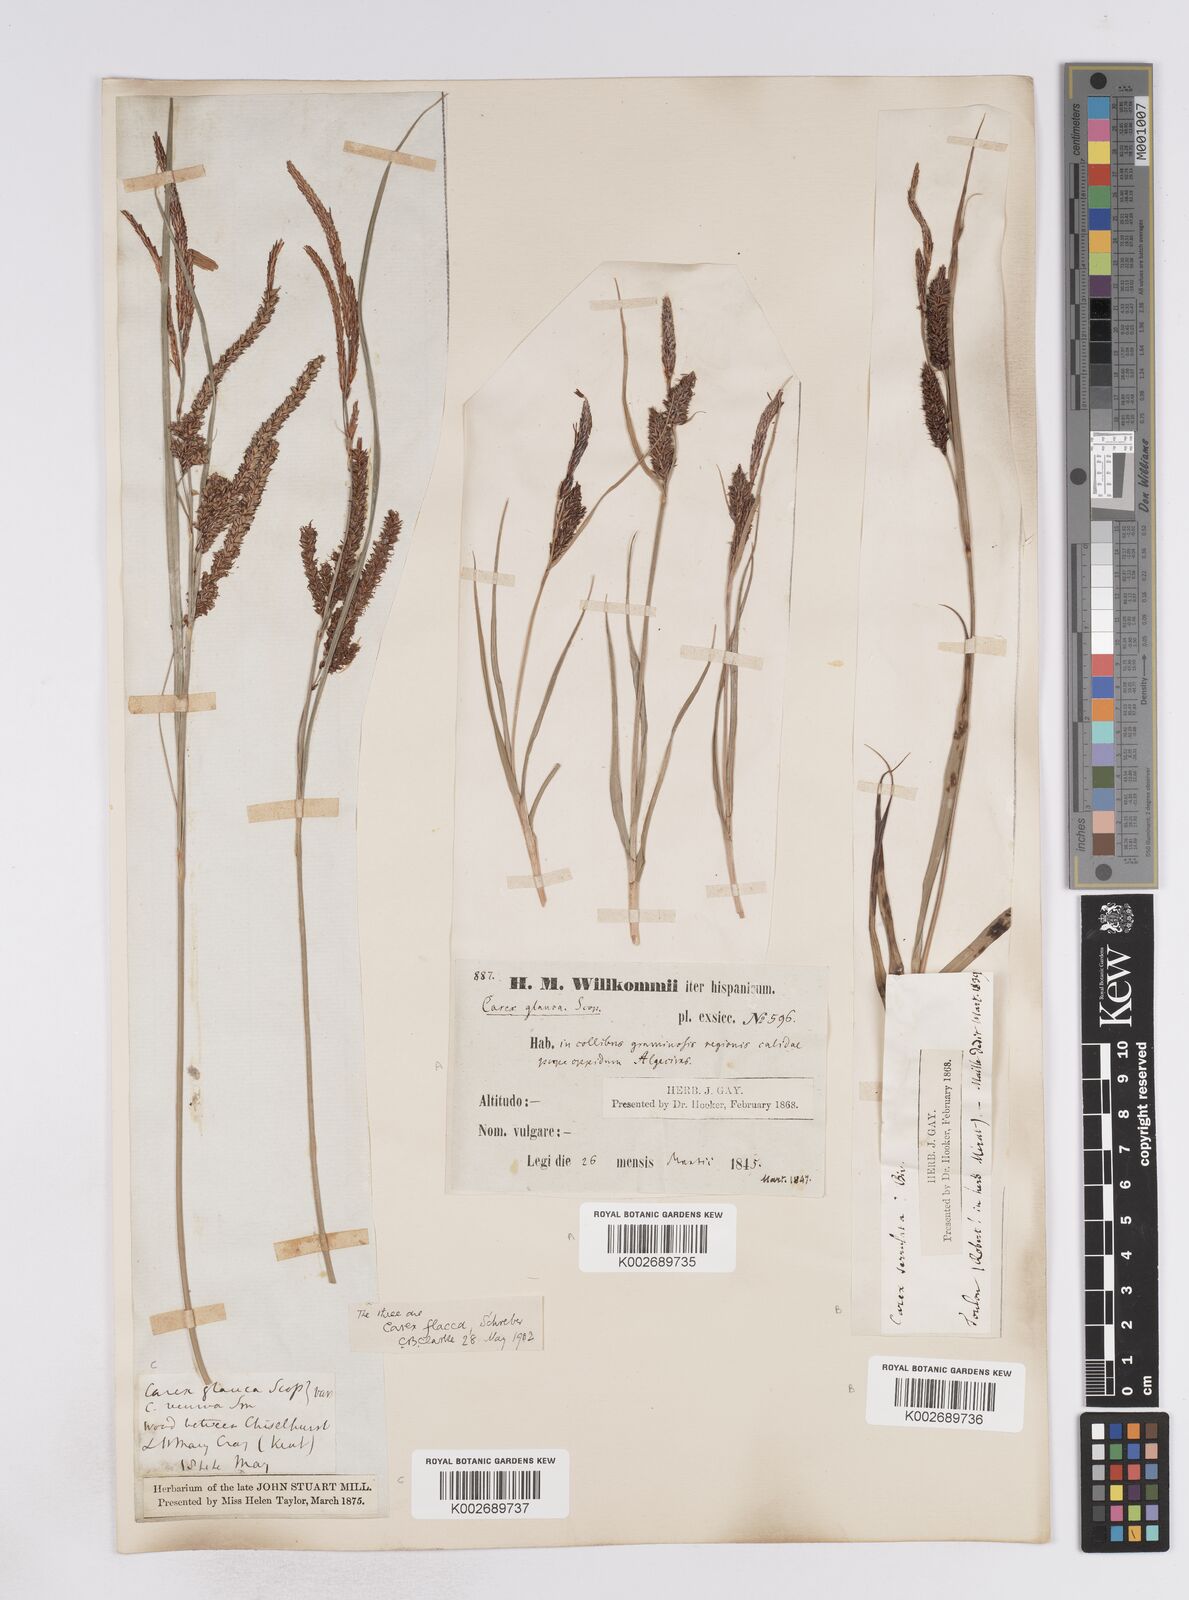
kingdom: Plantae
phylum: Tracheophyta
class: Liliopsida
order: Poales
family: Cyperaceae
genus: Carex
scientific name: Carex flacca
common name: Glaucous sedge
